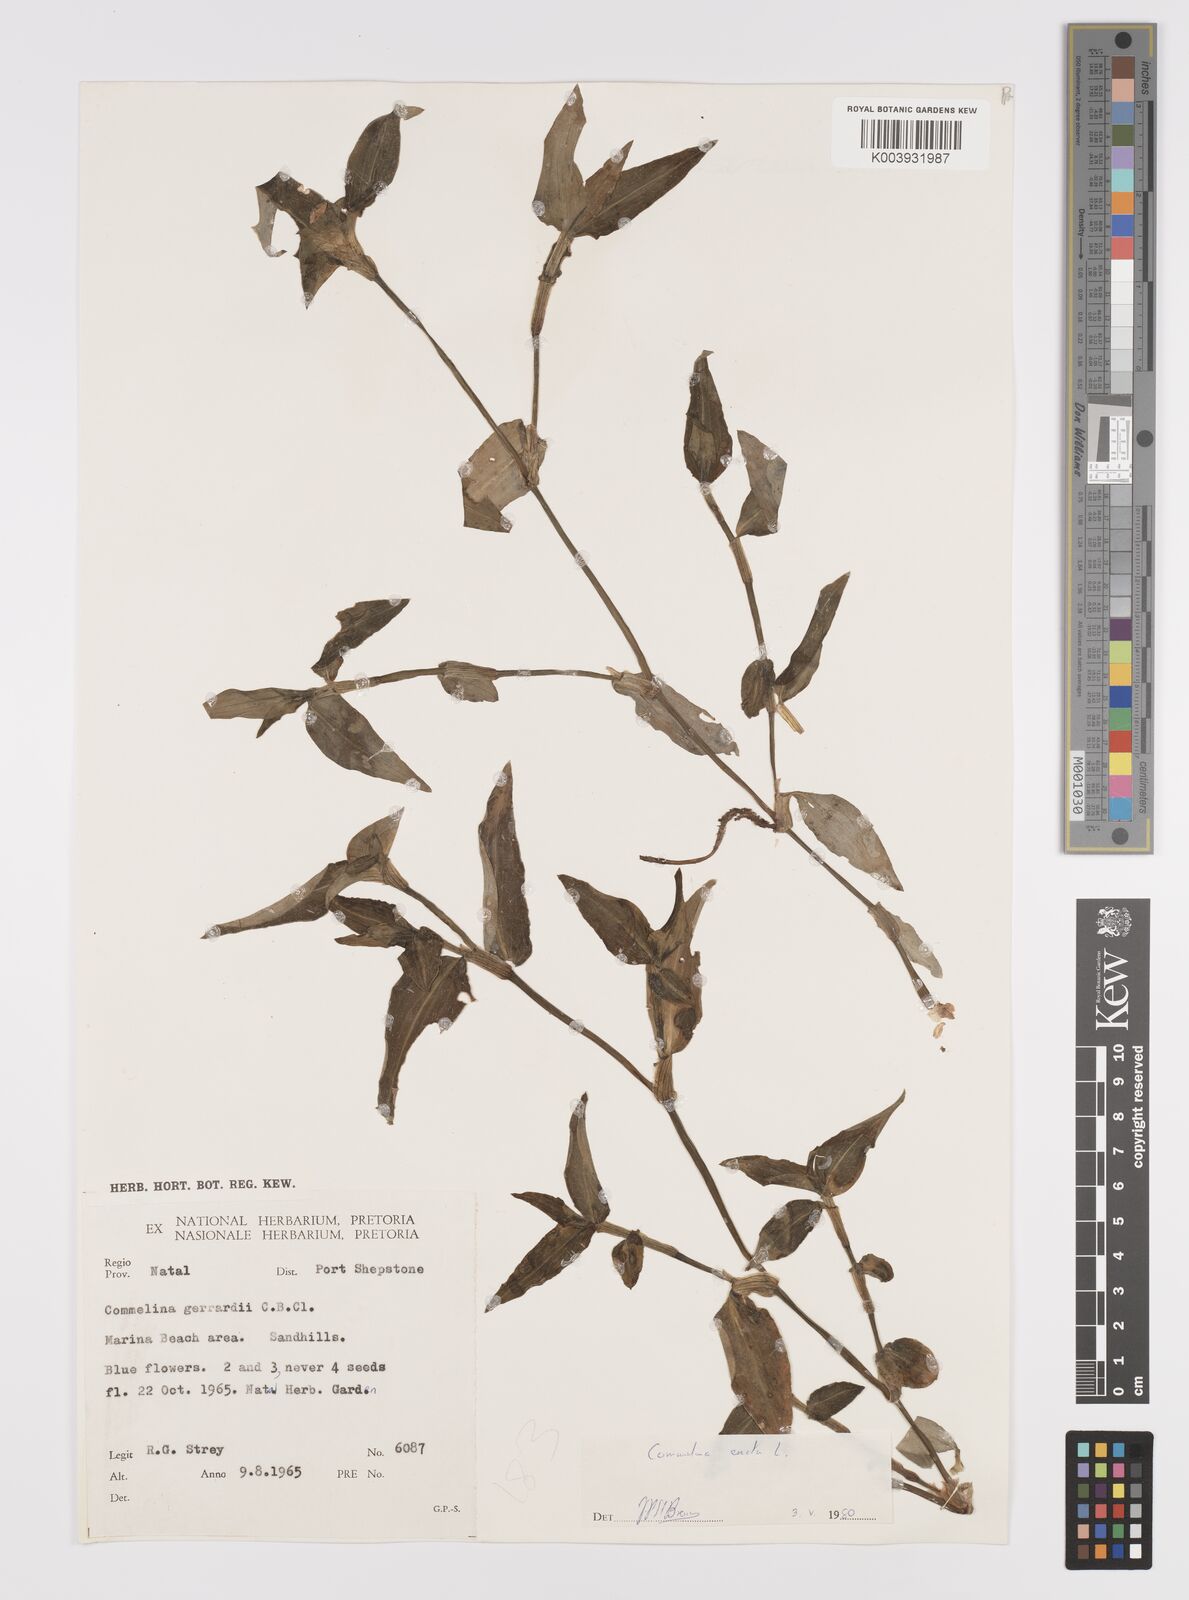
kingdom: Plantae
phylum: Tracheophyta
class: Liliopsida
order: Commelinales
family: Commelinaceae
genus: Commelina
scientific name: Commelina erecta
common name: Blousel blommetjie
